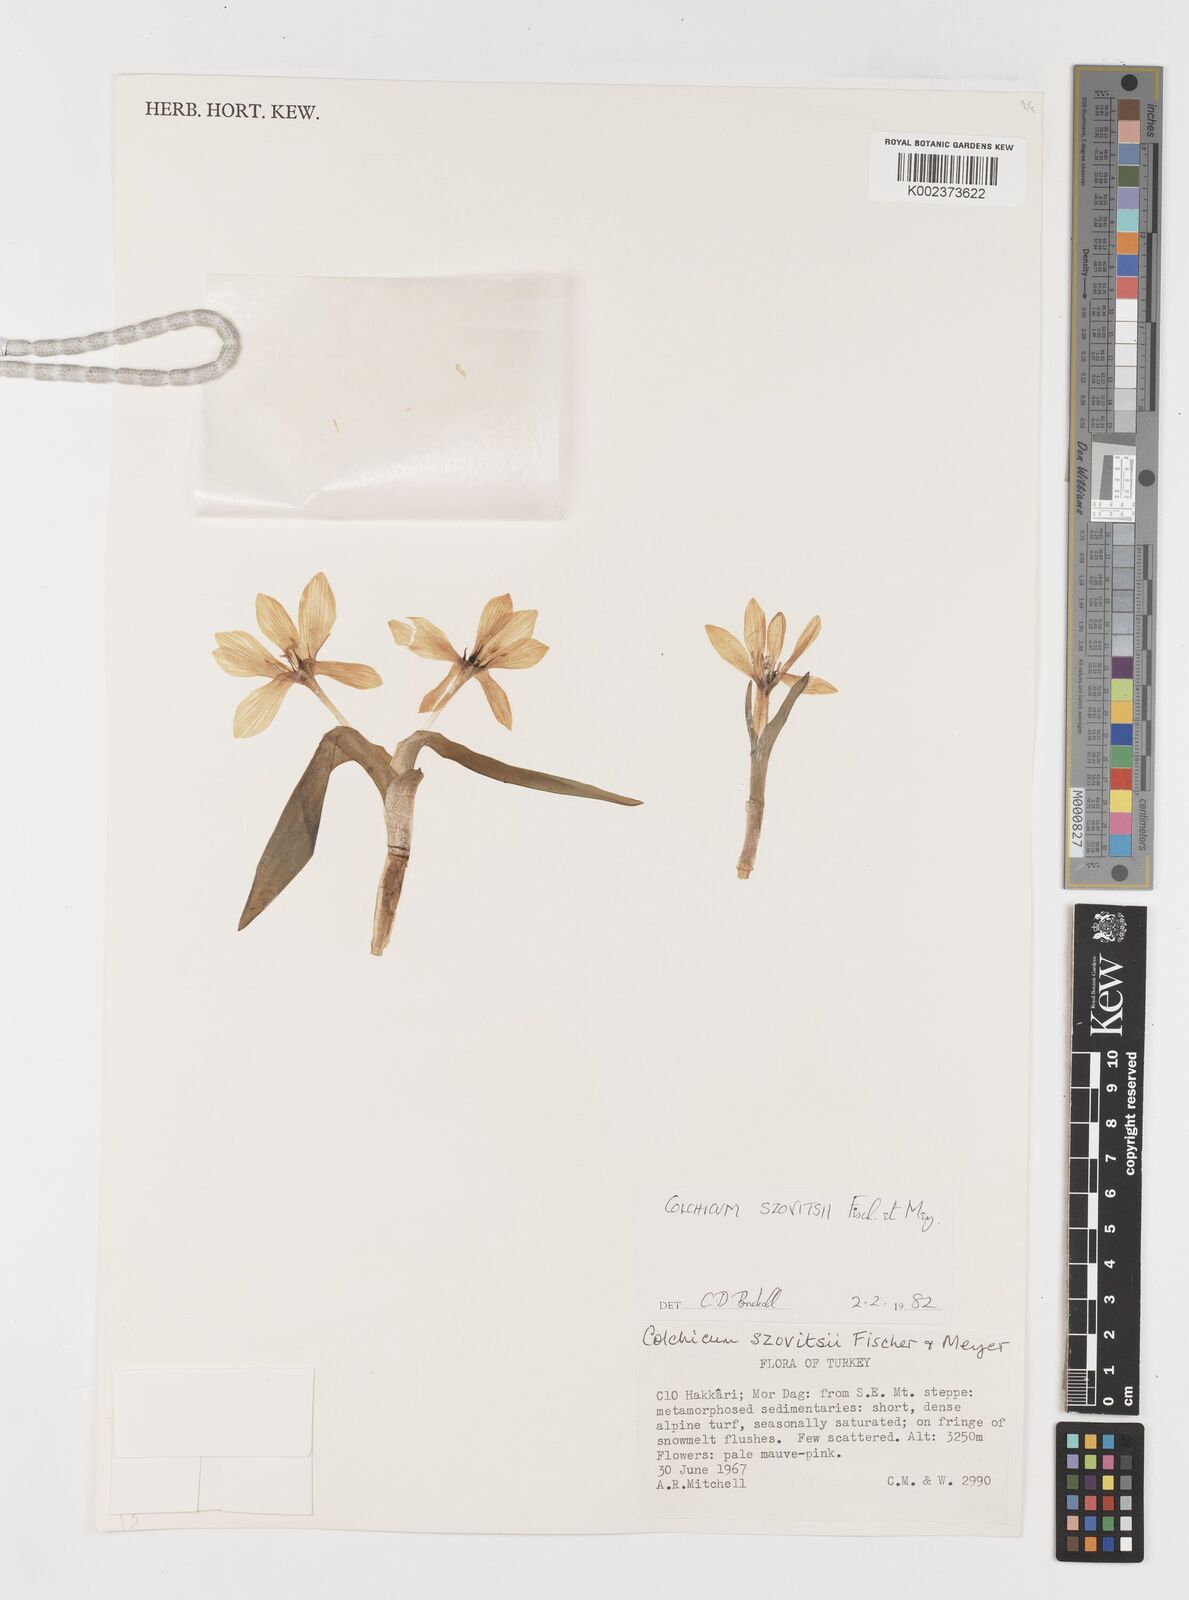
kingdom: Plantae
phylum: Tracheophyta
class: Liliopsida
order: Liliales
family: Colchicaceae
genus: Colchicum
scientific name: Colchicum szovitsii
